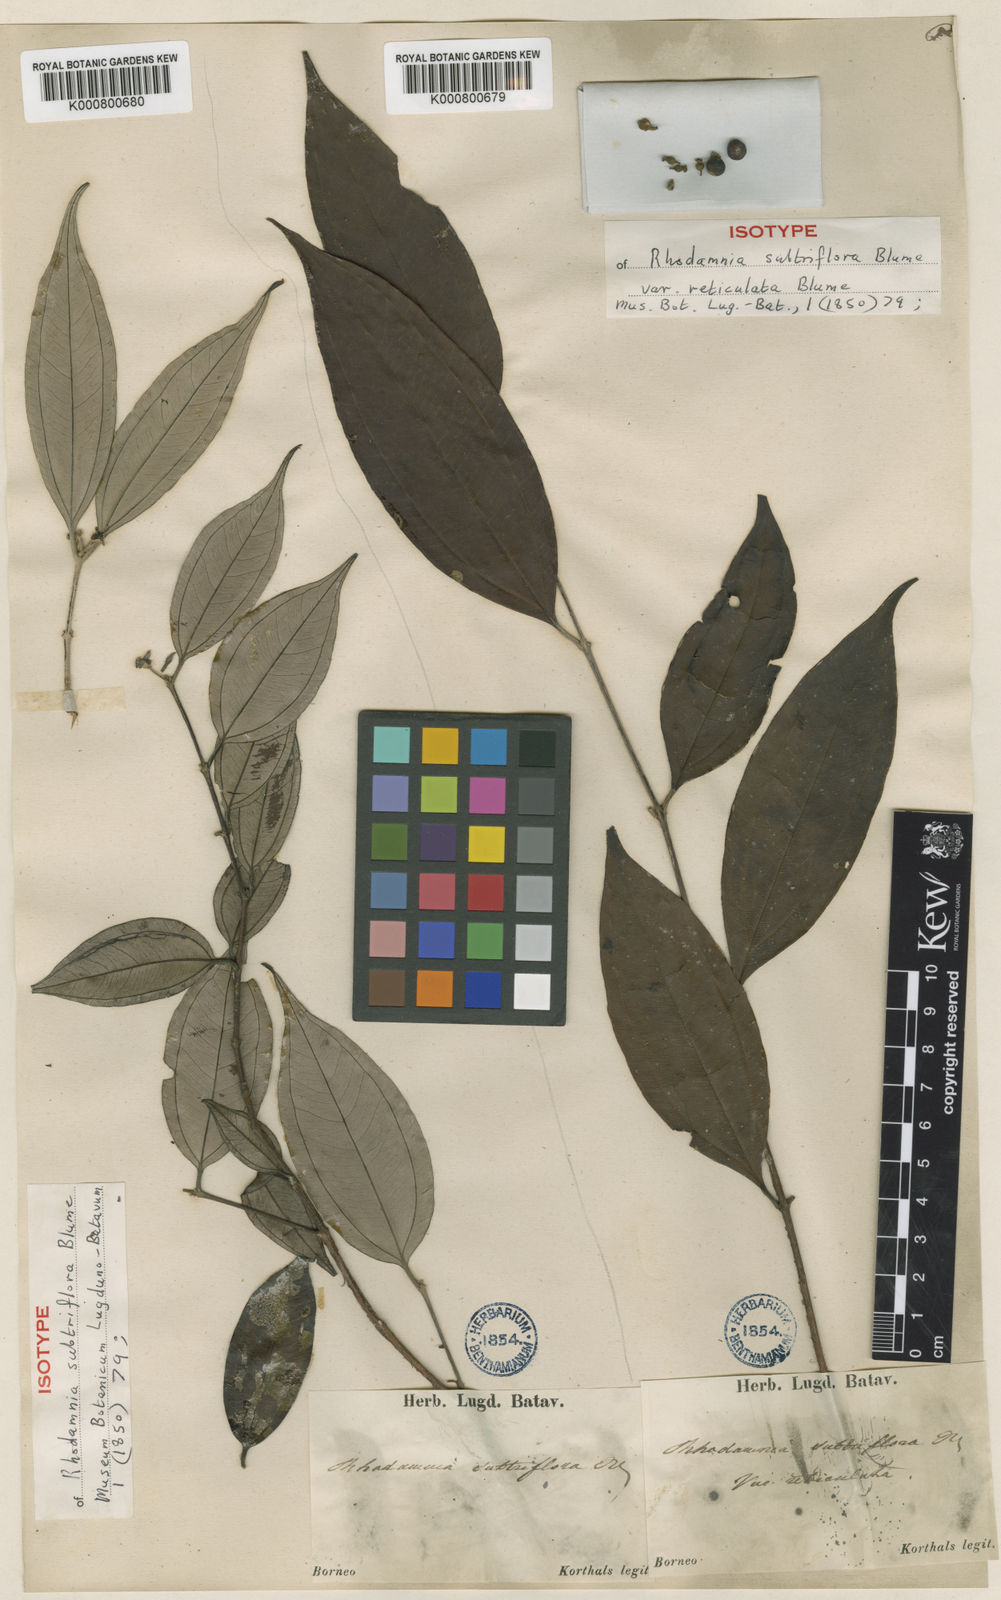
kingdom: Plantae
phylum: Tracheophyta
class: Magnoliopsida
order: Myrtales
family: Myrtaceae
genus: Rhodamnia
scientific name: Rhodamnia cinerea
